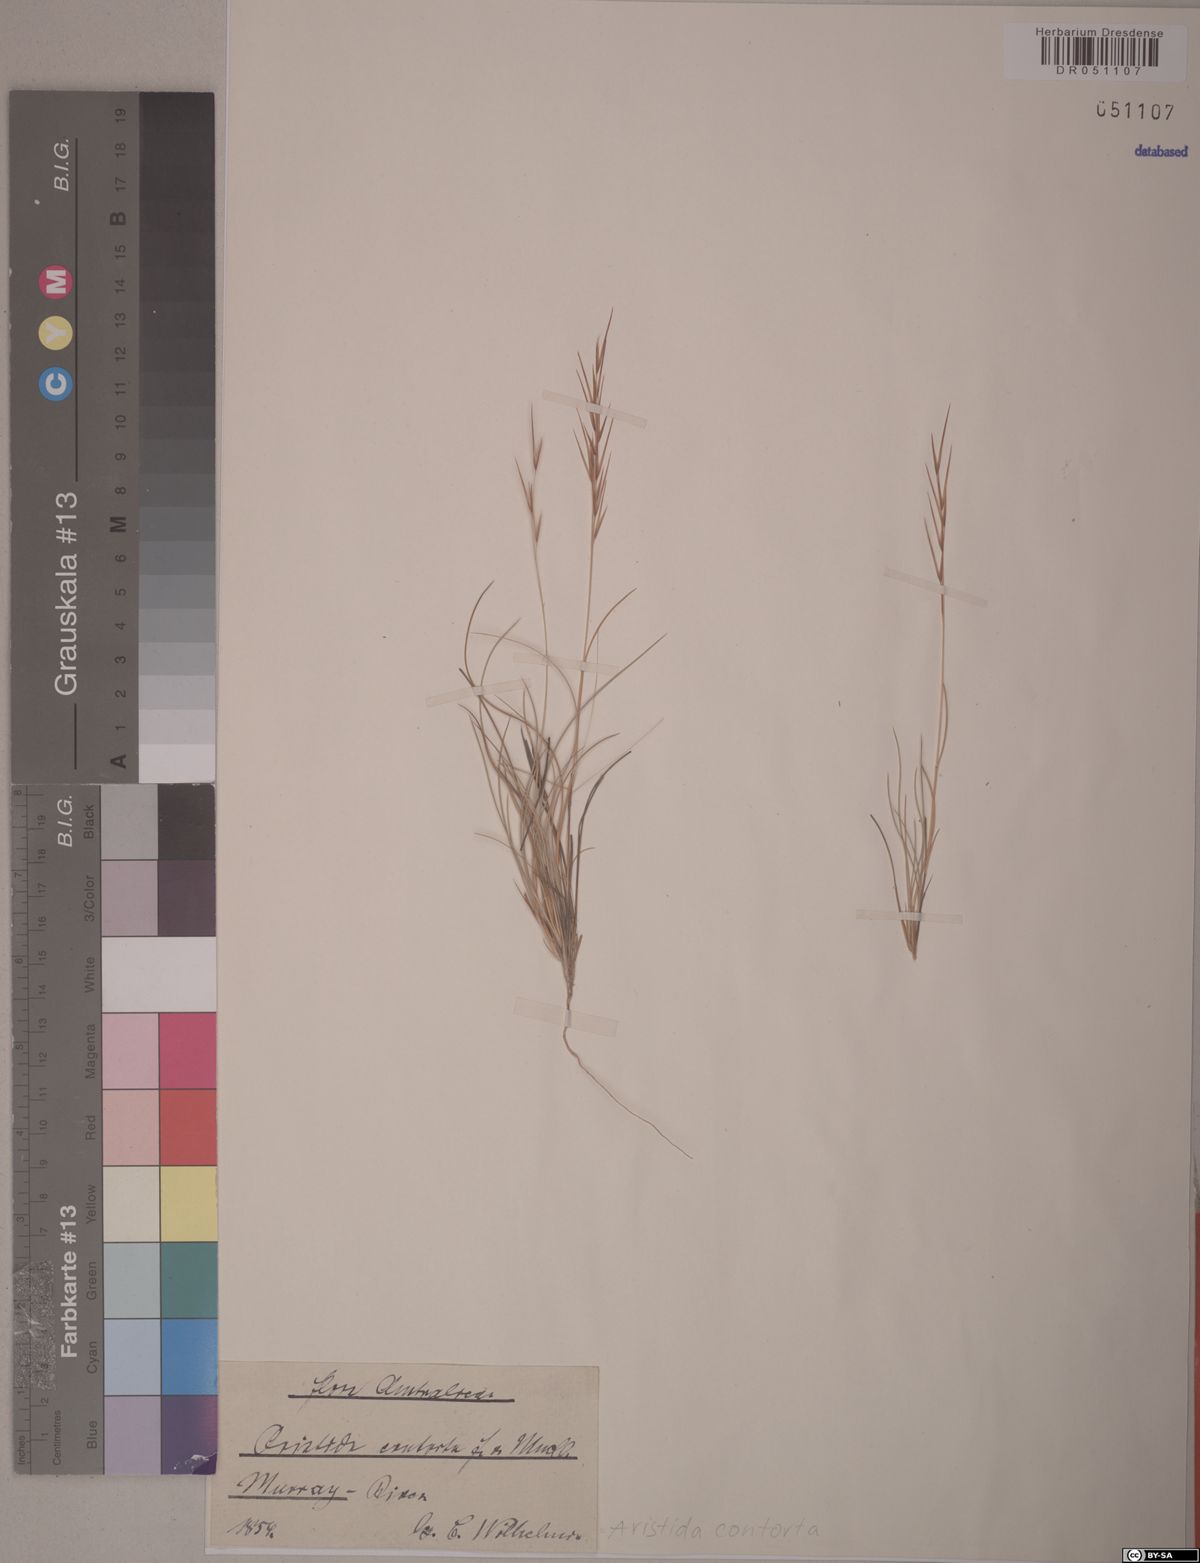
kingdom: Plantae
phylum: Tracheophyta
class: Liliopsida
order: Poales
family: Poaceae
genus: Aristida
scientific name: Aristida contorta
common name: Bunch kerosene grass
